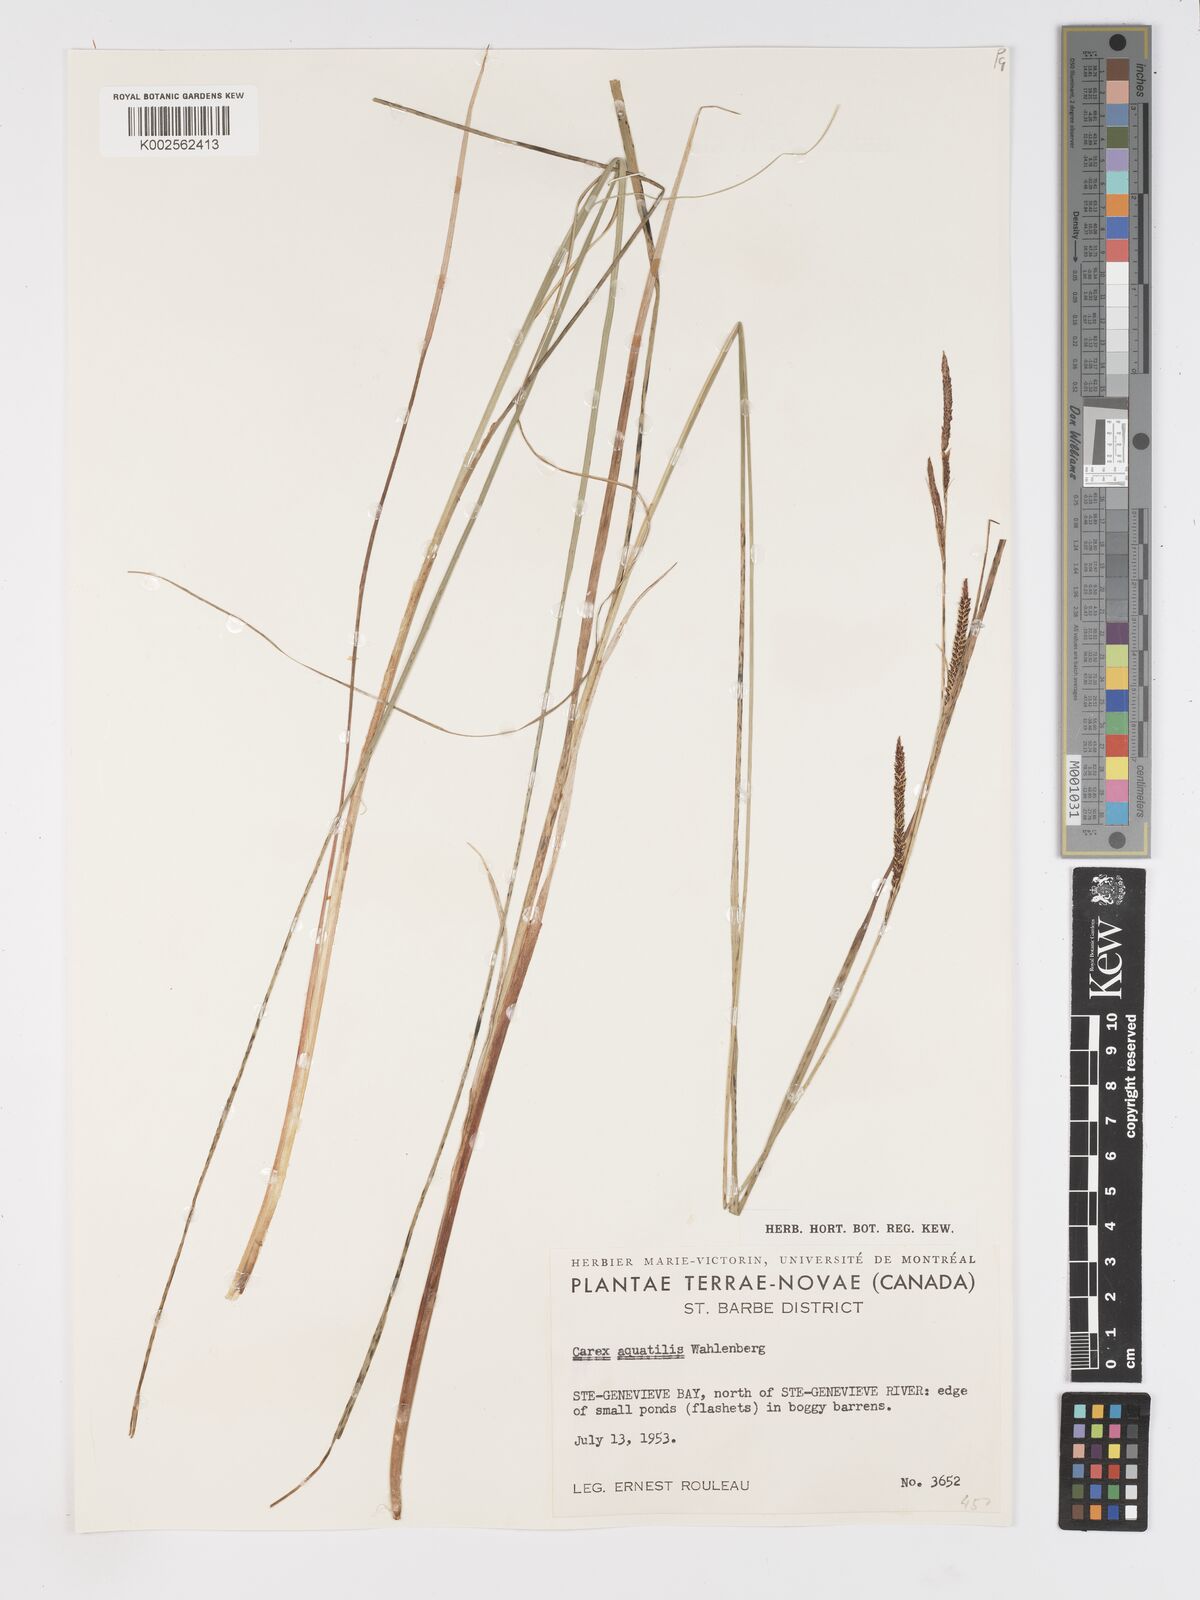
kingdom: Plantae
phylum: Tracheophyta
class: Liliopsida
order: Poales
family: Cyperaceae
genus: Carex
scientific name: Carex aquatilis
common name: Water sedge
